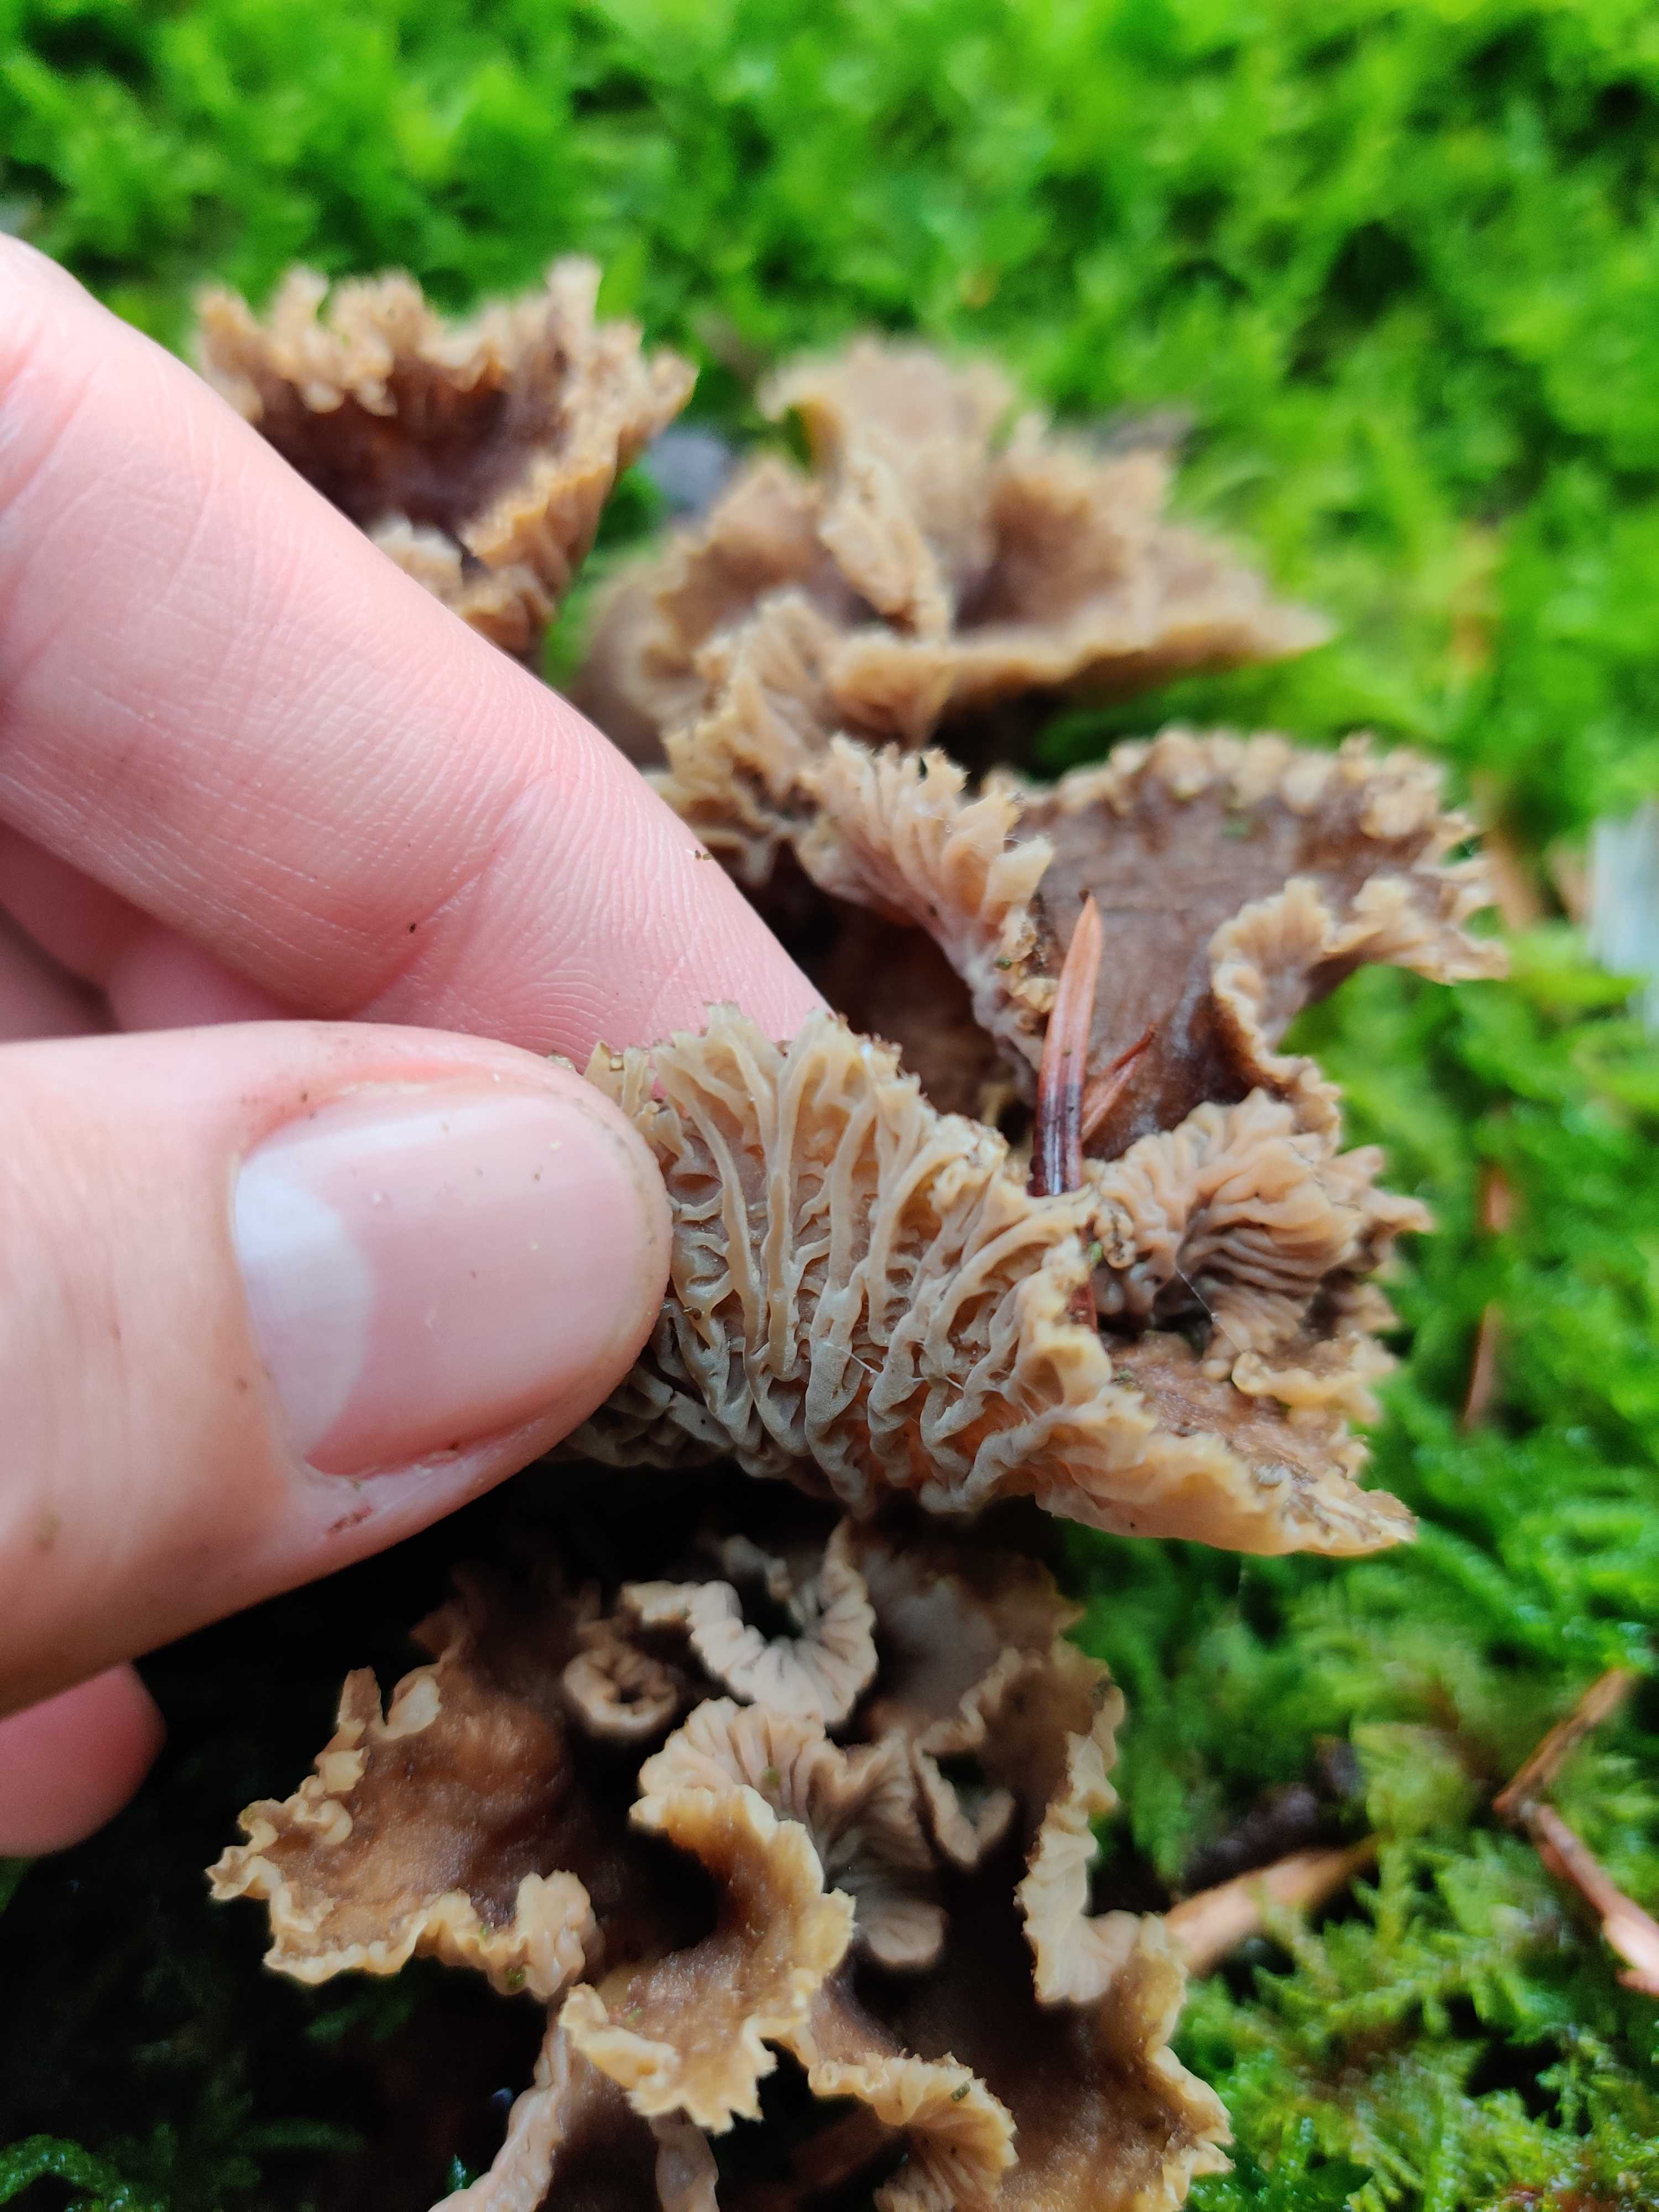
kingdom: Fungi
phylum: Basidiomycota
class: Agaricomycetes
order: Cantharellales
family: Hydnaceae
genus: Craterellus
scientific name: Craterellus tubaeformis
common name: tragt-kantarel
